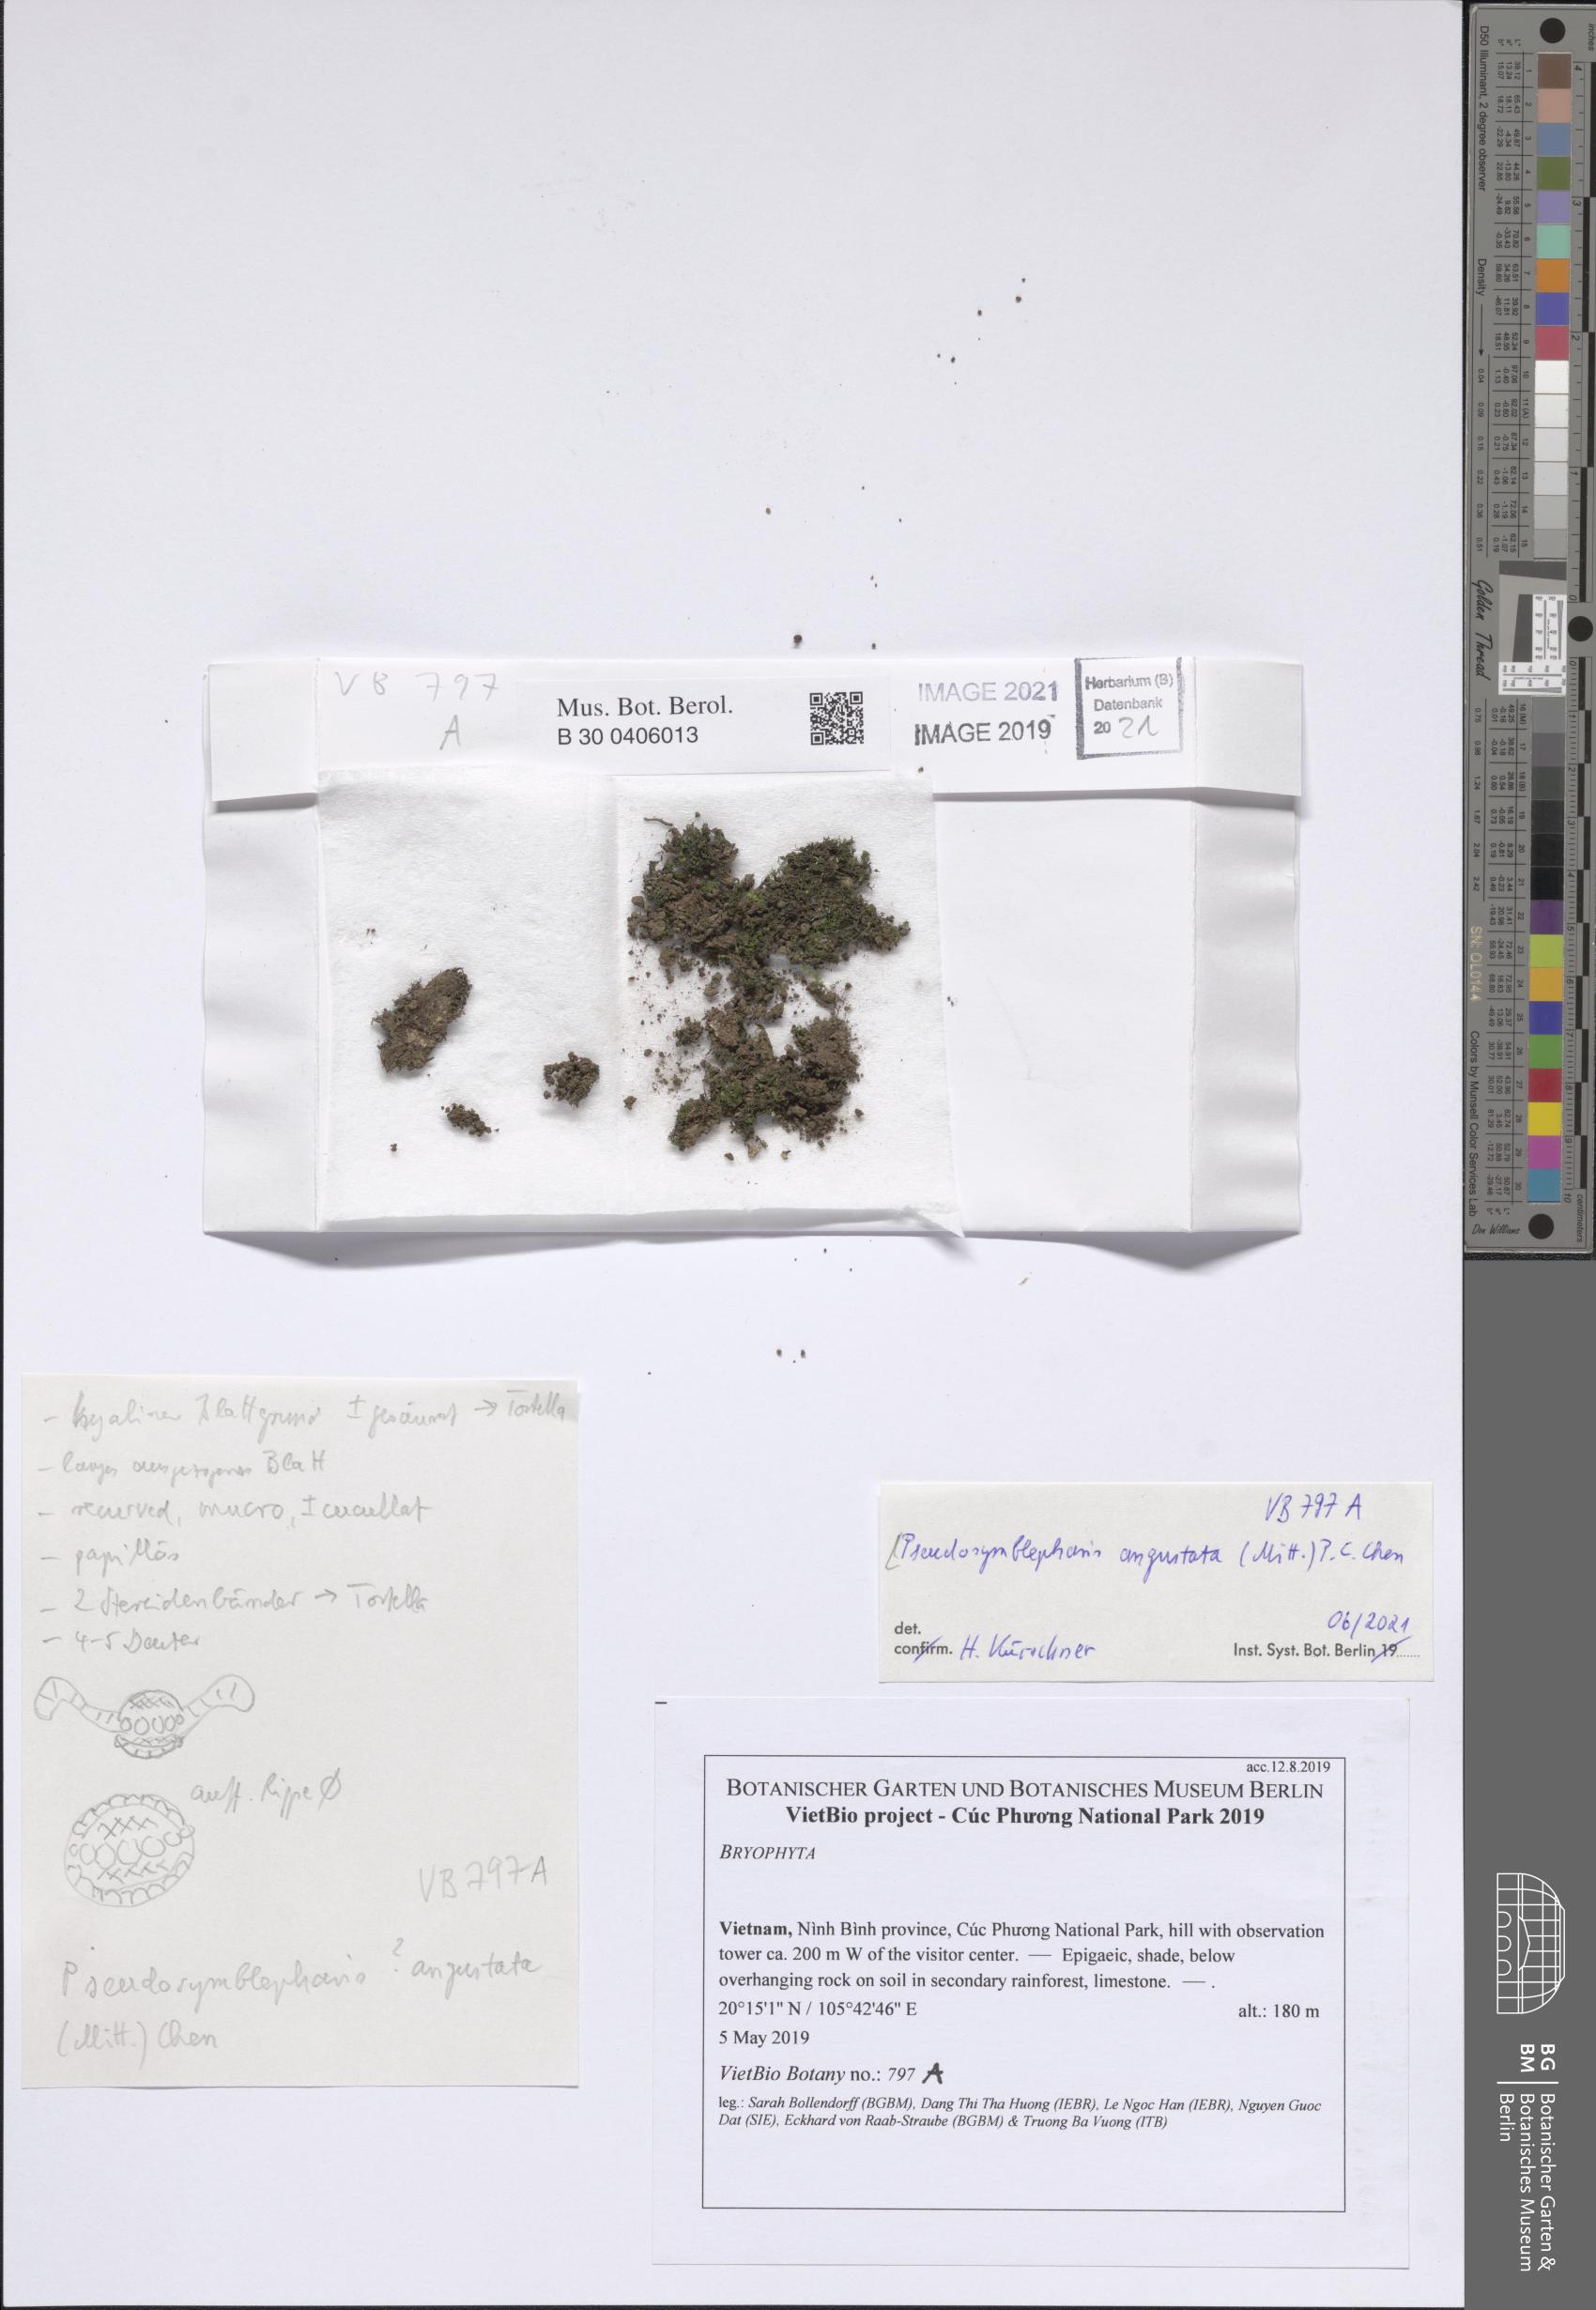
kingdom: Plantae
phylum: Bryophyta
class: Bryopsida
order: Pottiales
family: Pottiaceae
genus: Chionoloma
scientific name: Chionoloma angustatum
